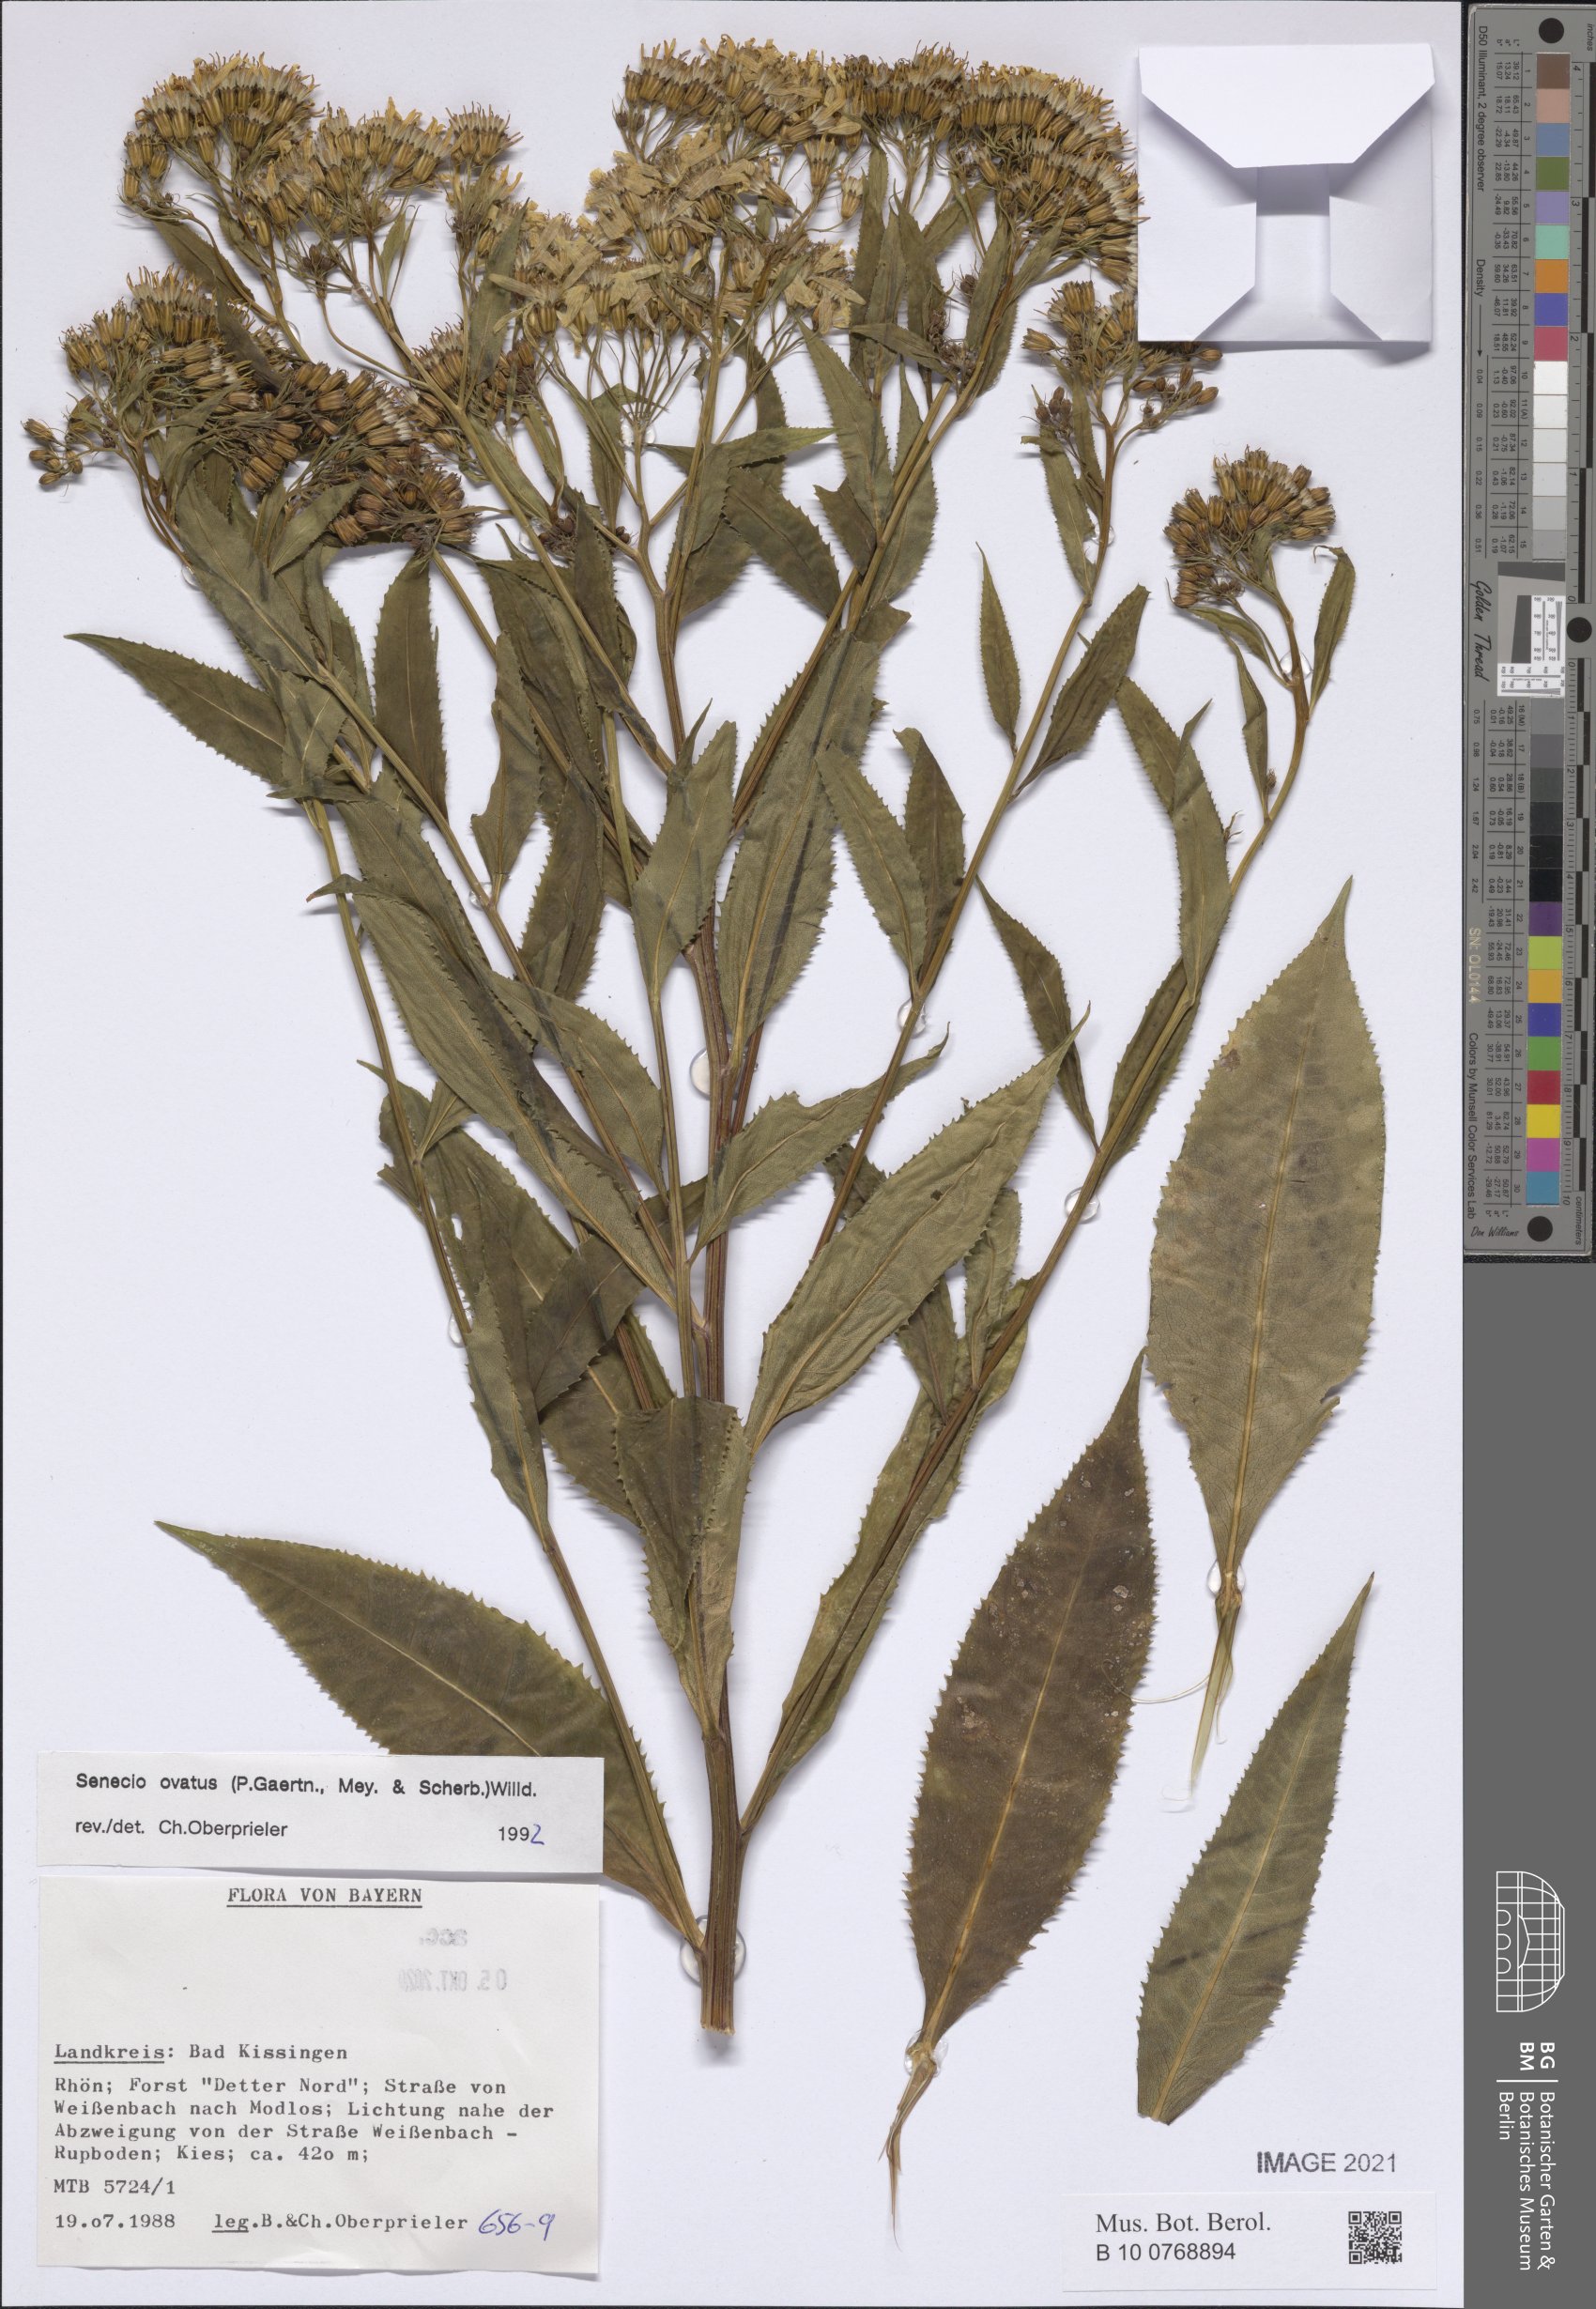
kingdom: Plantae
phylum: Tracheophyta
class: Magnoliopsida
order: Asterales
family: Asteraceae
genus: Senecio
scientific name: Senecio ovatus
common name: Wood ragwort
